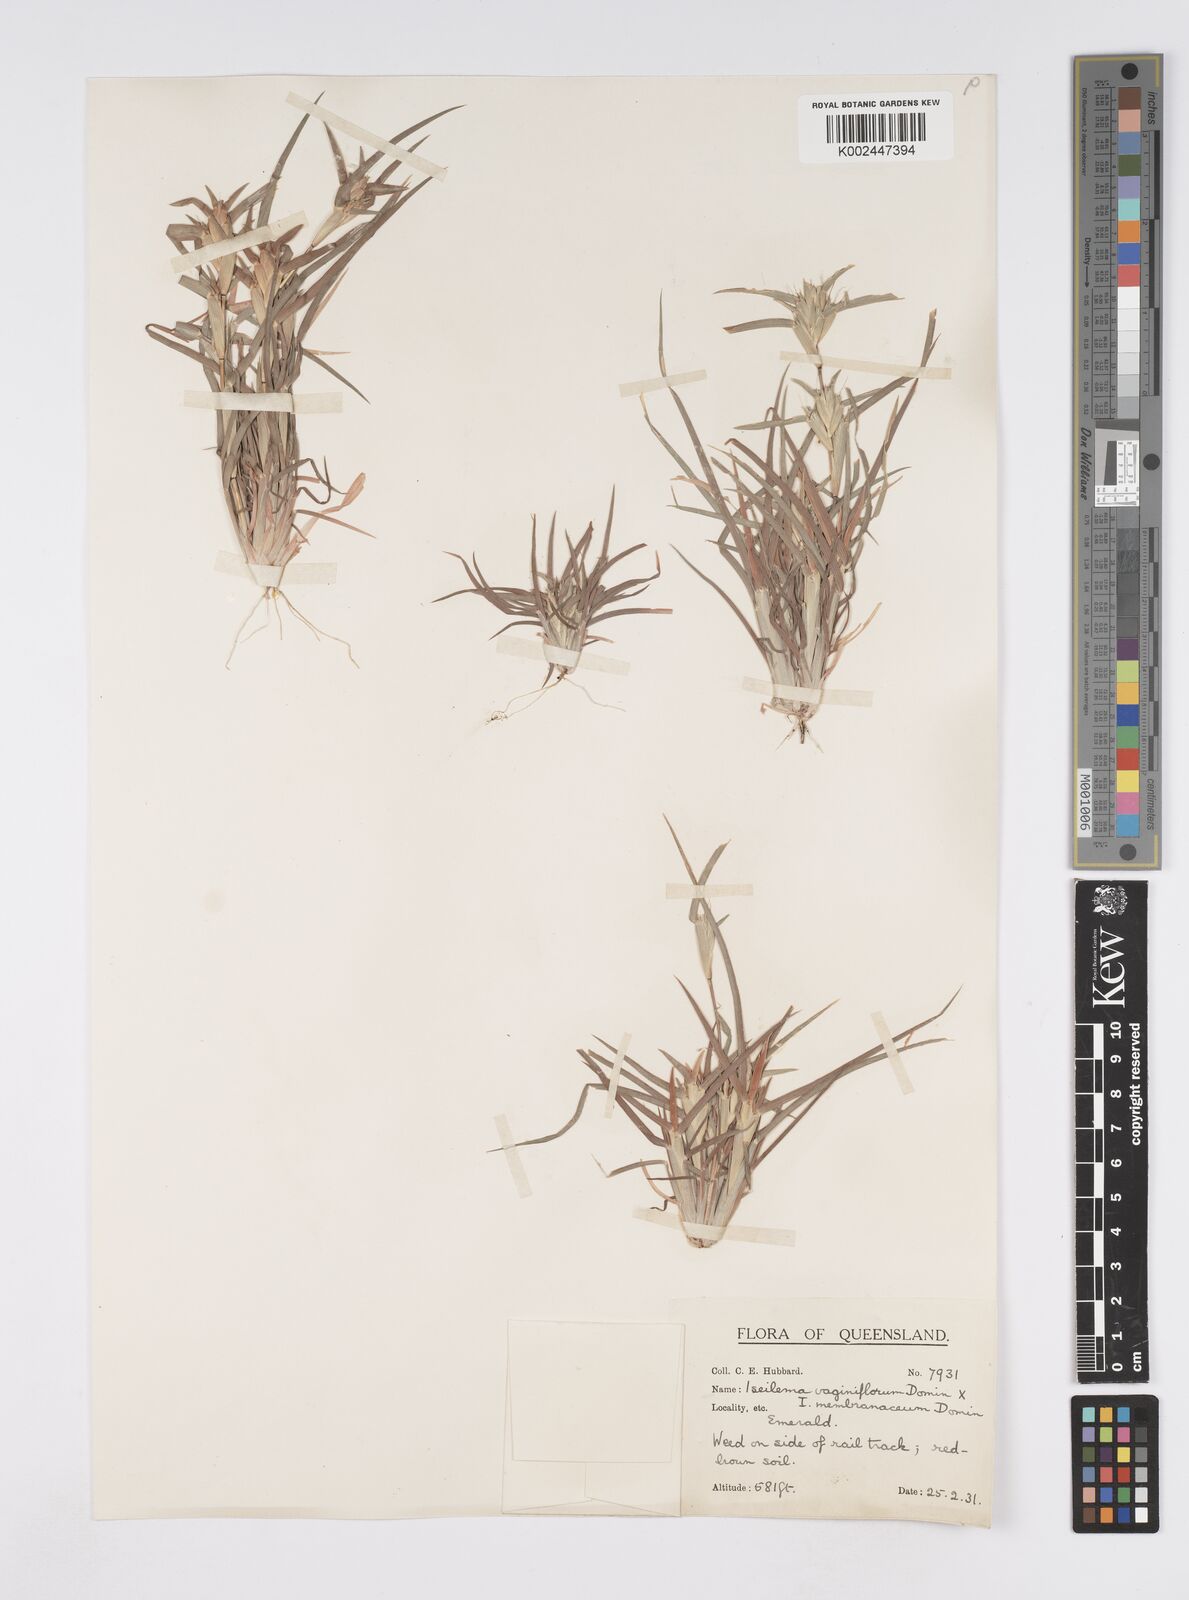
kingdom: Plantae
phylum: Tracheophyta
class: Liliopsida
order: Poales
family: Poaceae
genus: Iseilema
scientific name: Iseilema vaginiflorum
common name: Red flinders grass
